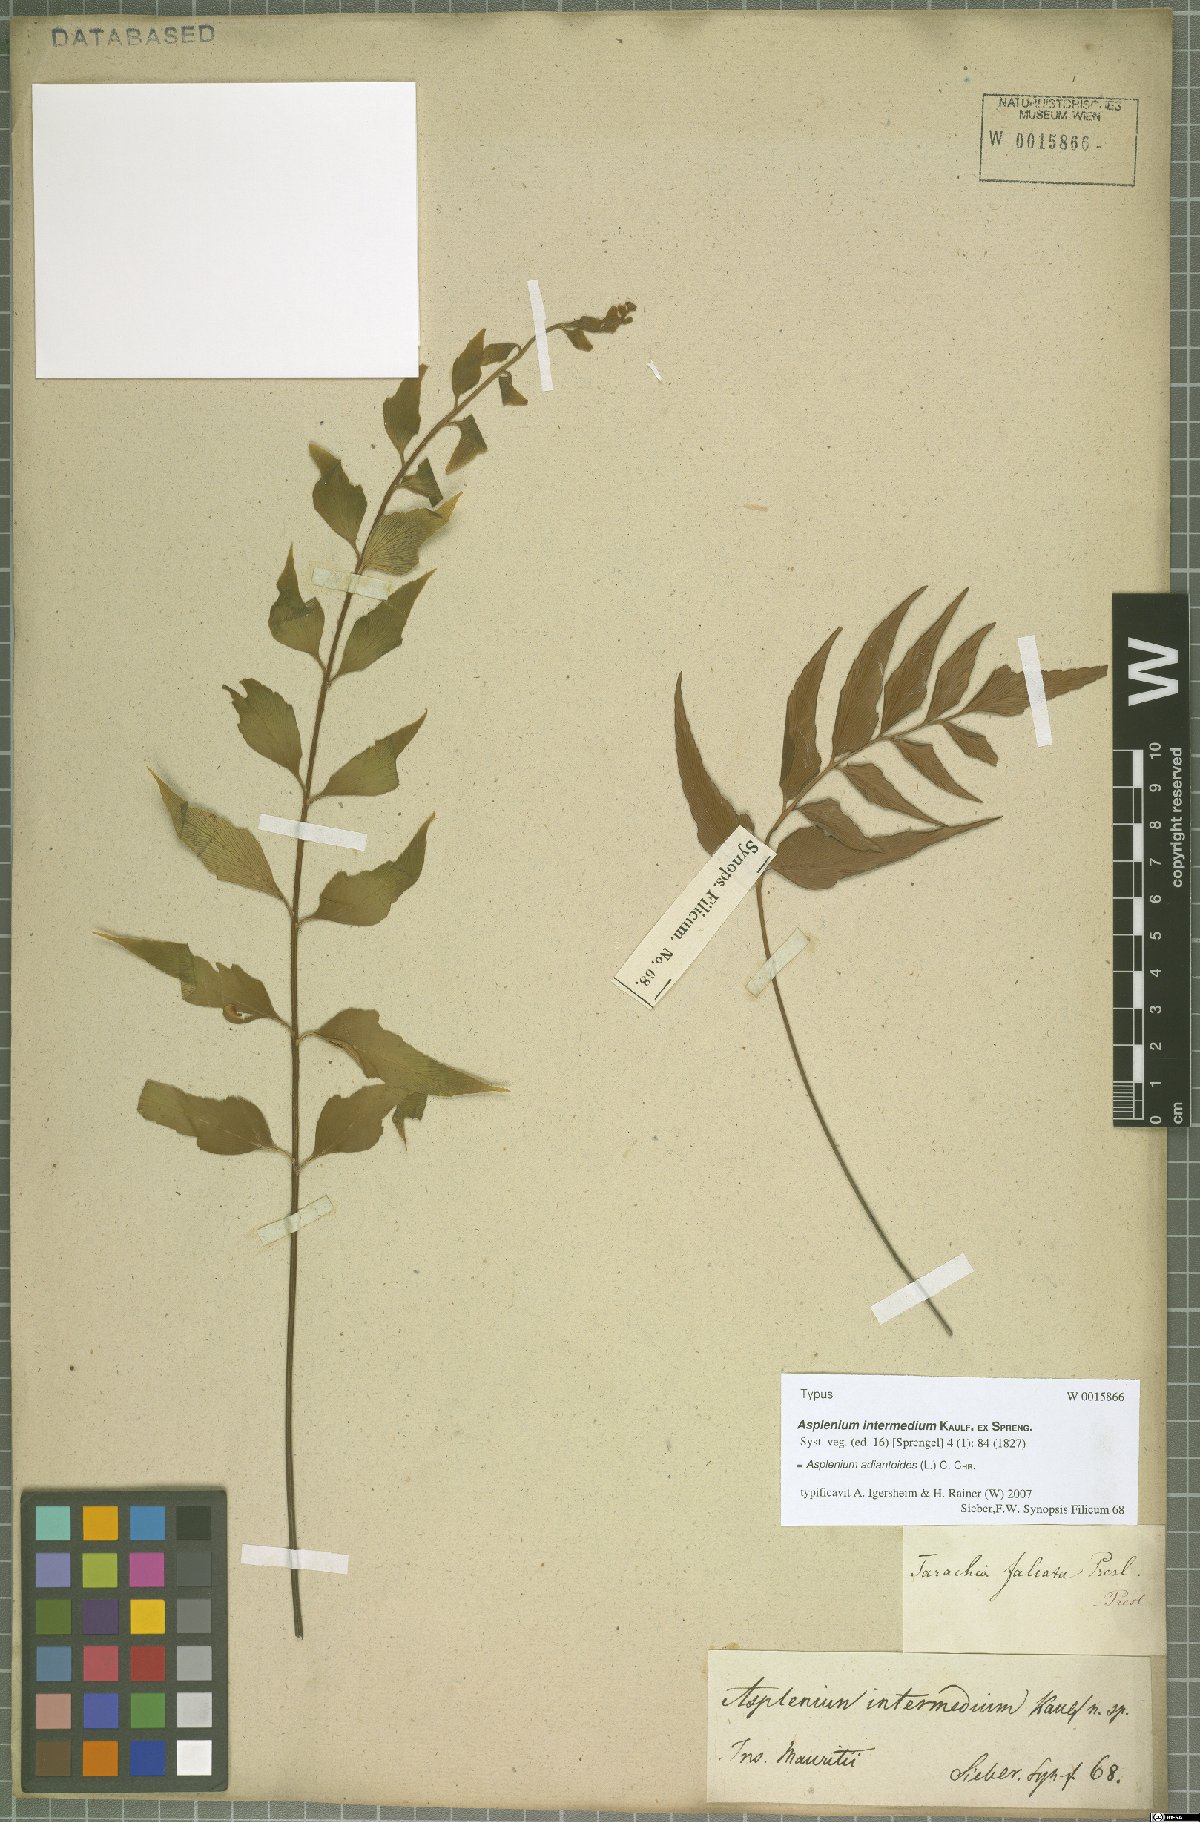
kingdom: Plantae
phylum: Tracheophyta
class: Polypodiopsida
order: Polypodiales
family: Aspleniaceae
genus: Asplenium
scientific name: Asplenium aethiopicum
